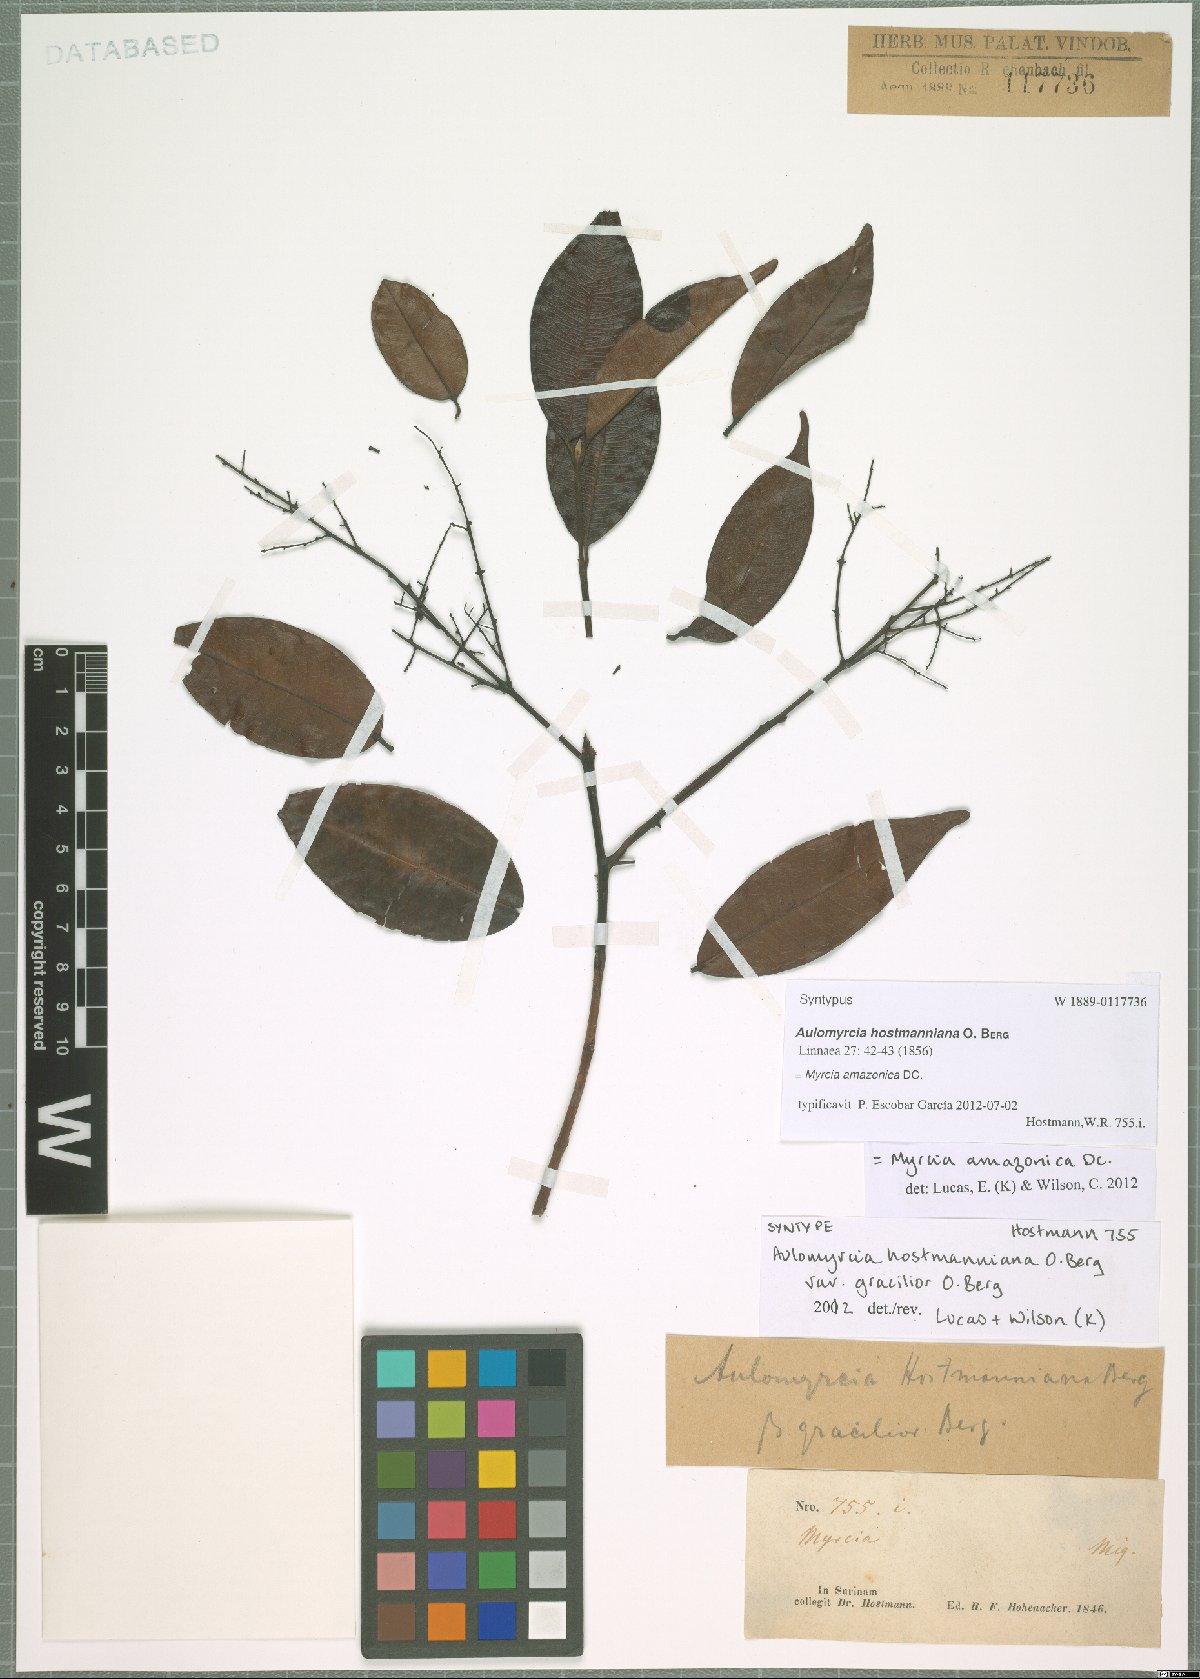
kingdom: Plantae
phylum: Tracheophyta
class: Magnoliopsida
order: Myrtales
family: Myrtaceae
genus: Myrcia
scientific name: Myrcia amazonica
